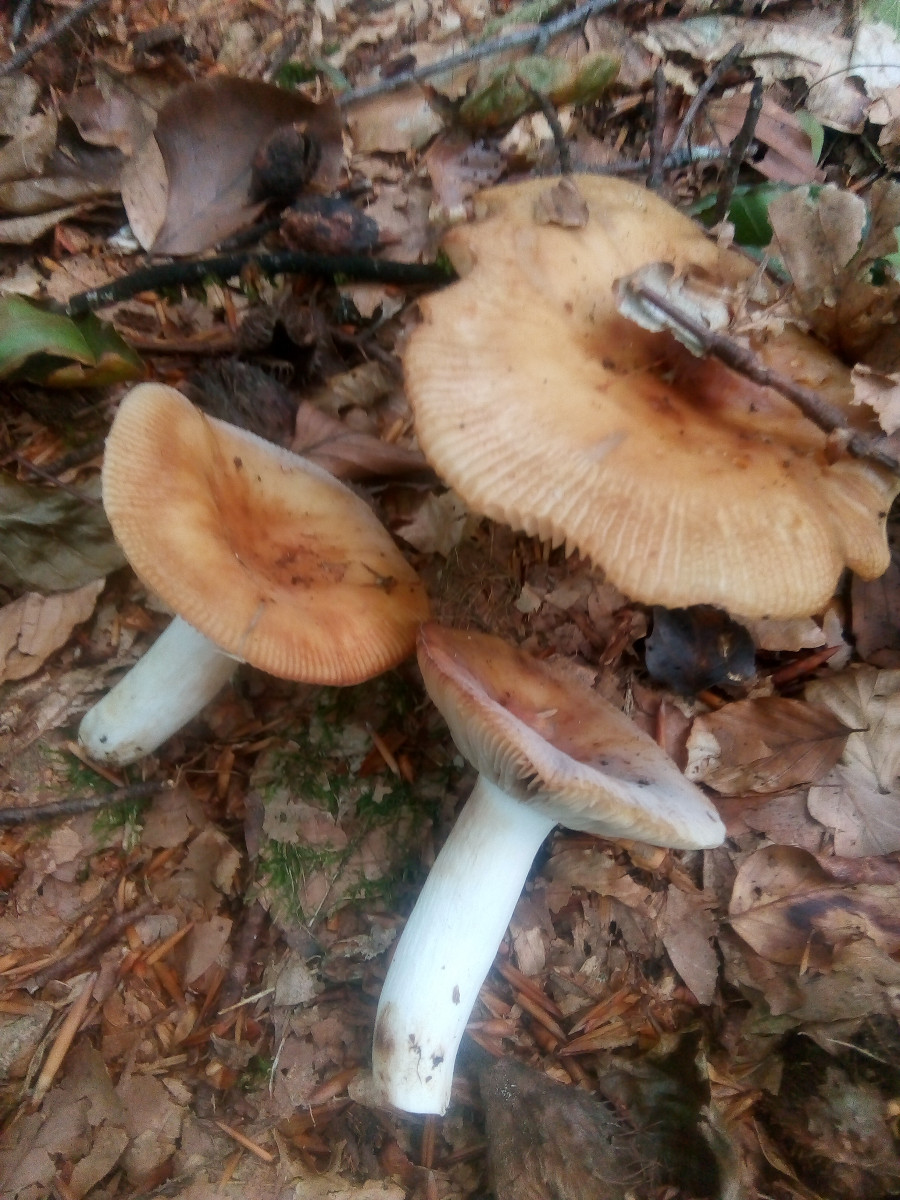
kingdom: Fungi
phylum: Basidiomycota
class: Agaricomycetes
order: Russulales
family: Russulaceae
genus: Russula
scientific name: Russula grata
